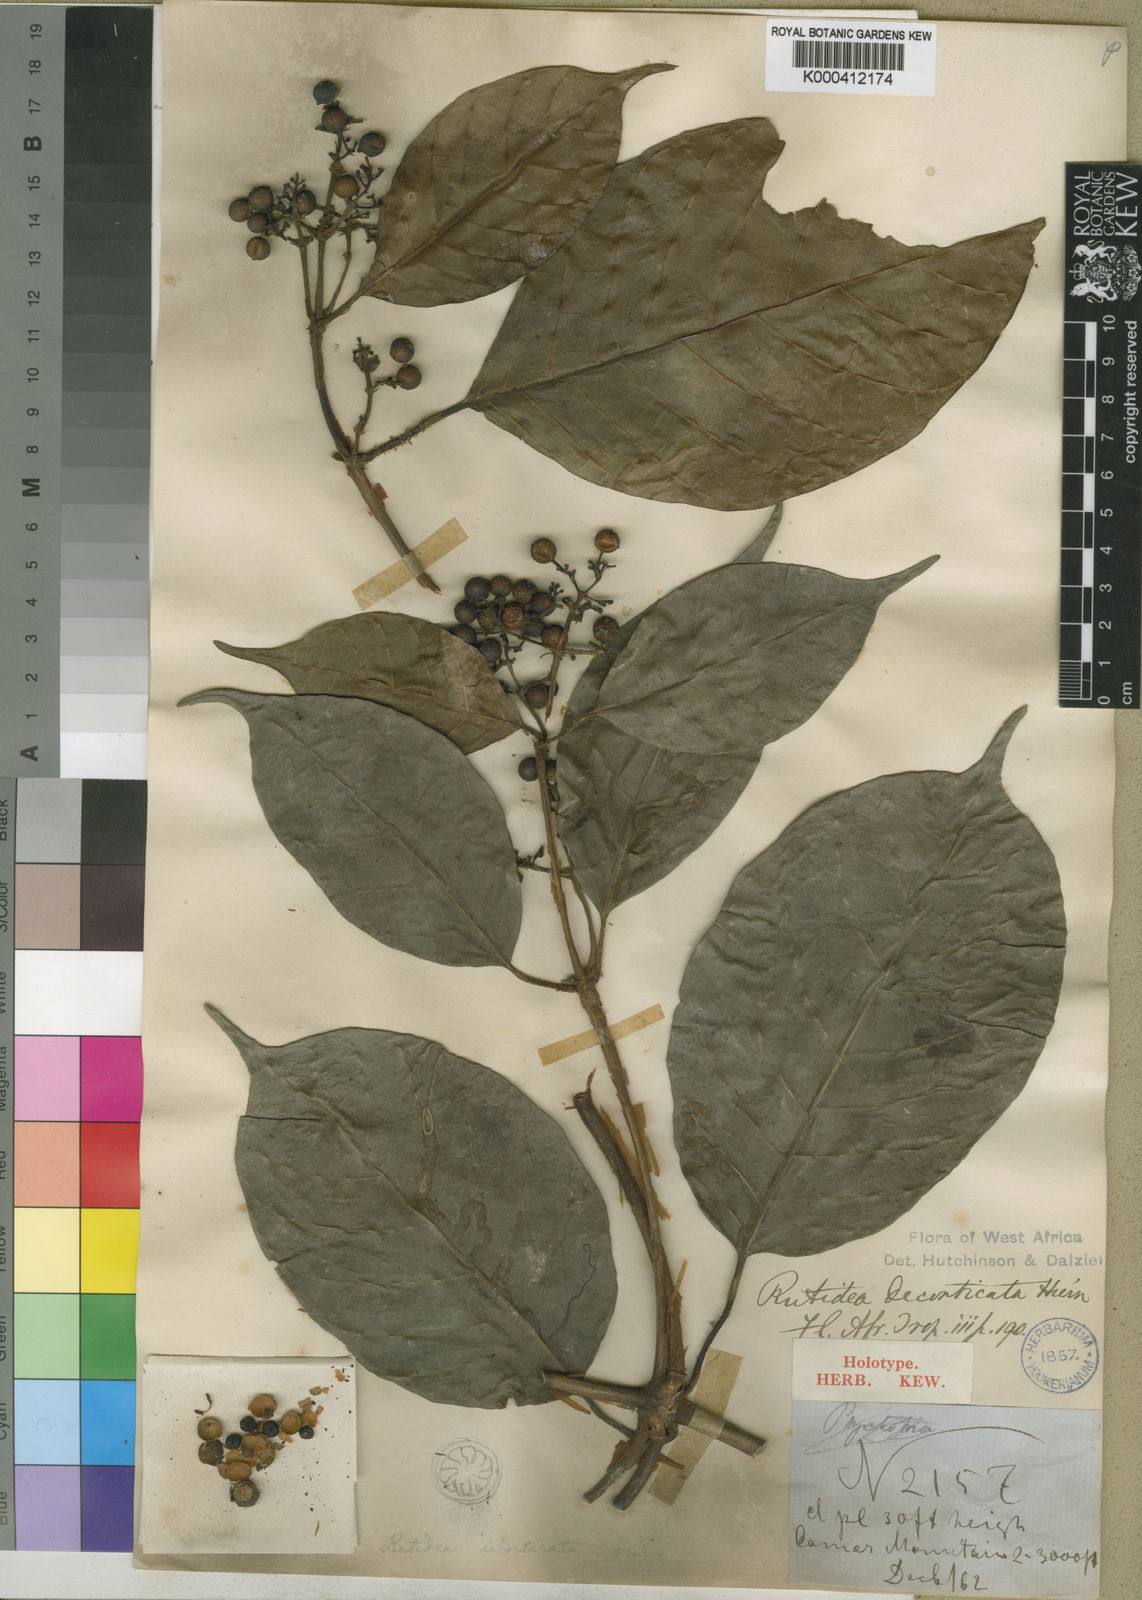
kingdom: Plantae
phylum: Tracheophyta
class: Magnoliopsida
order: Gentianales
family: Rubiaceae
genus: Rutidea
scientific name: Rutidea decorticata
